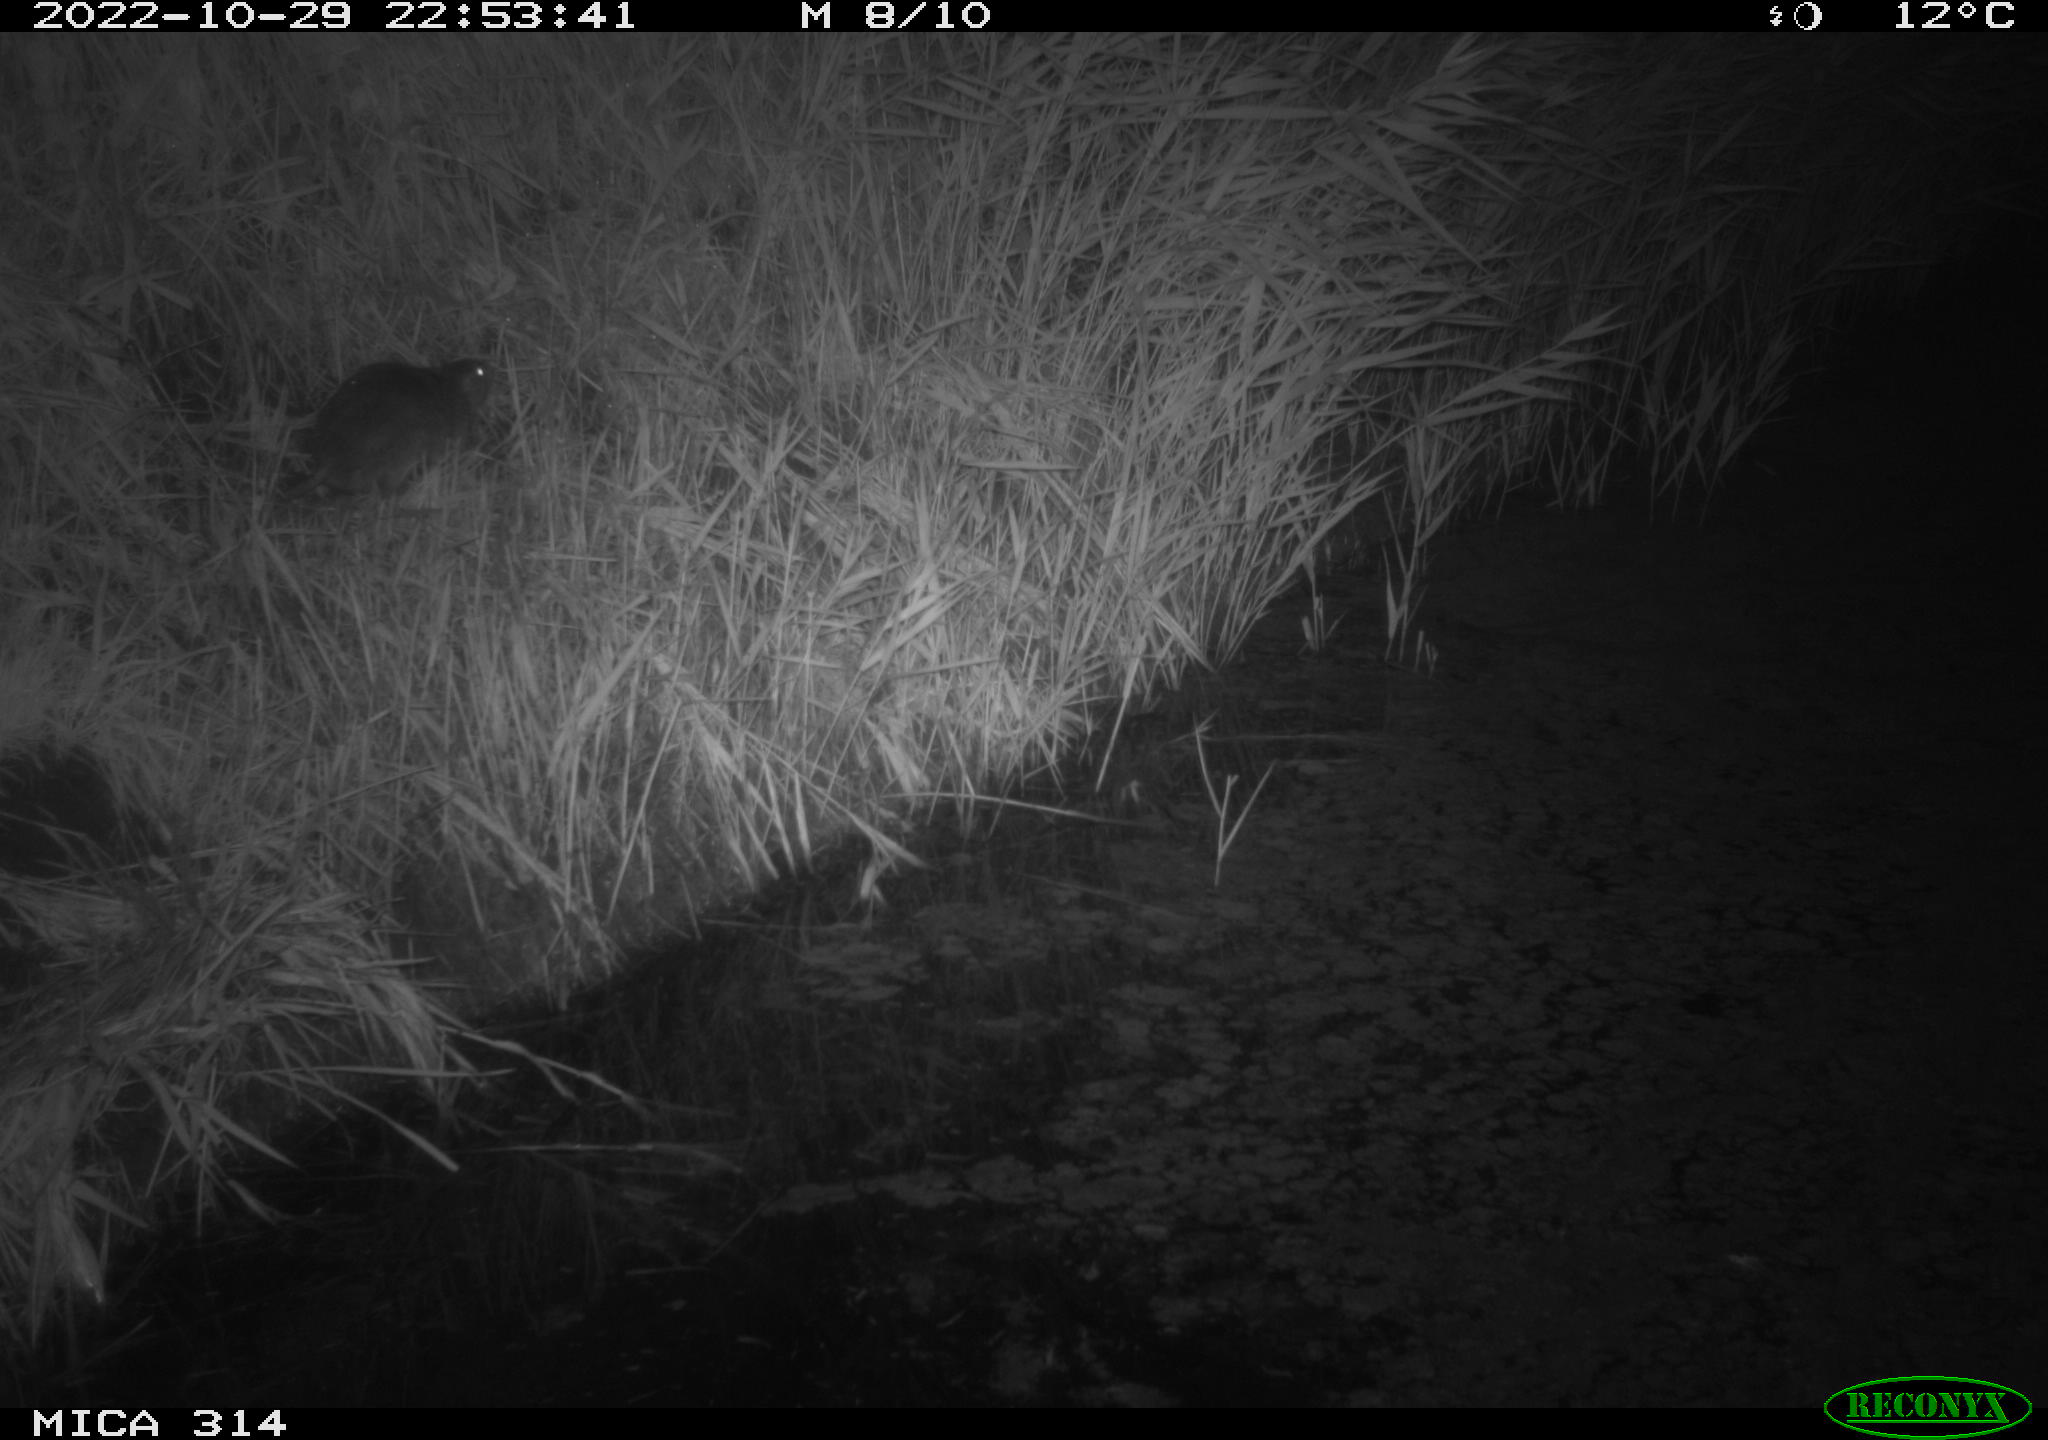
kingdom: Animalia
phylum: Chordata
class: Mammalia
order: Rodentia
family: Cricetidae
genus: Ondatra
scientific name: Ondatra zibethicus
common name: Muskrat
